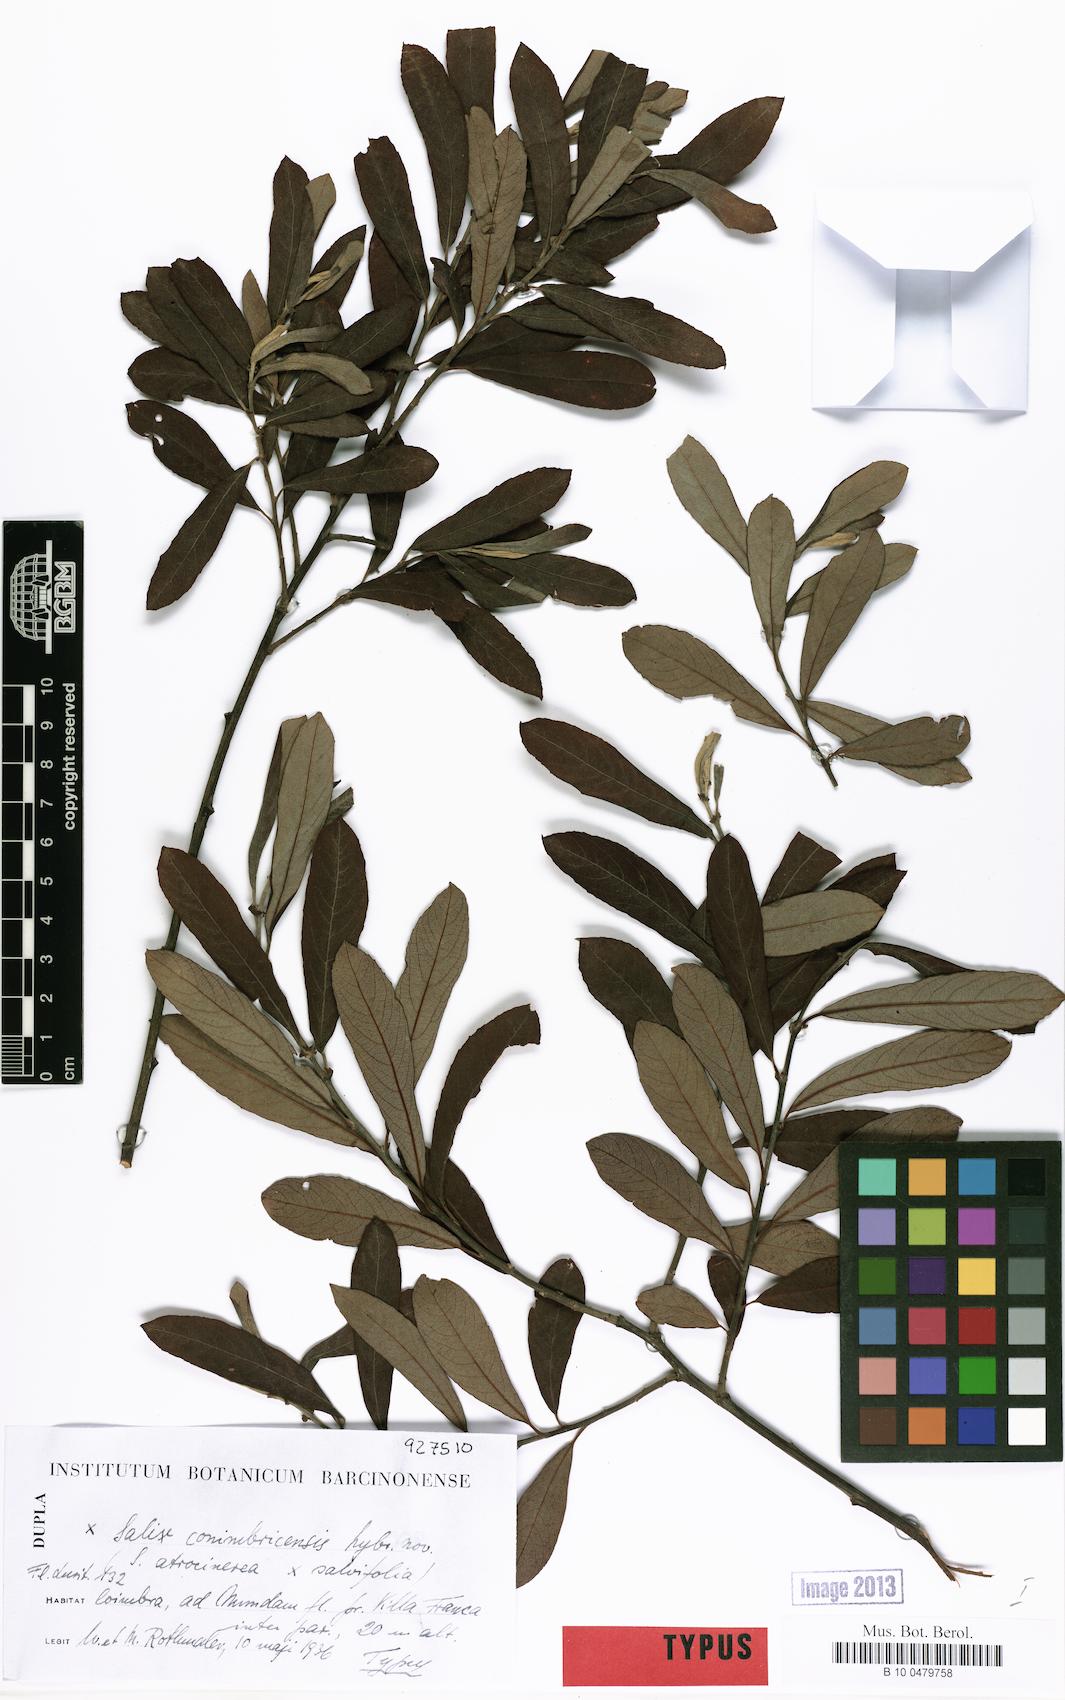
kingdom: Plantae
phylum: Tracheophyta
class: Magnoliopsida
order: Malpighiales
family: Salicaceae
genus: Salix
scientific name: Salix
